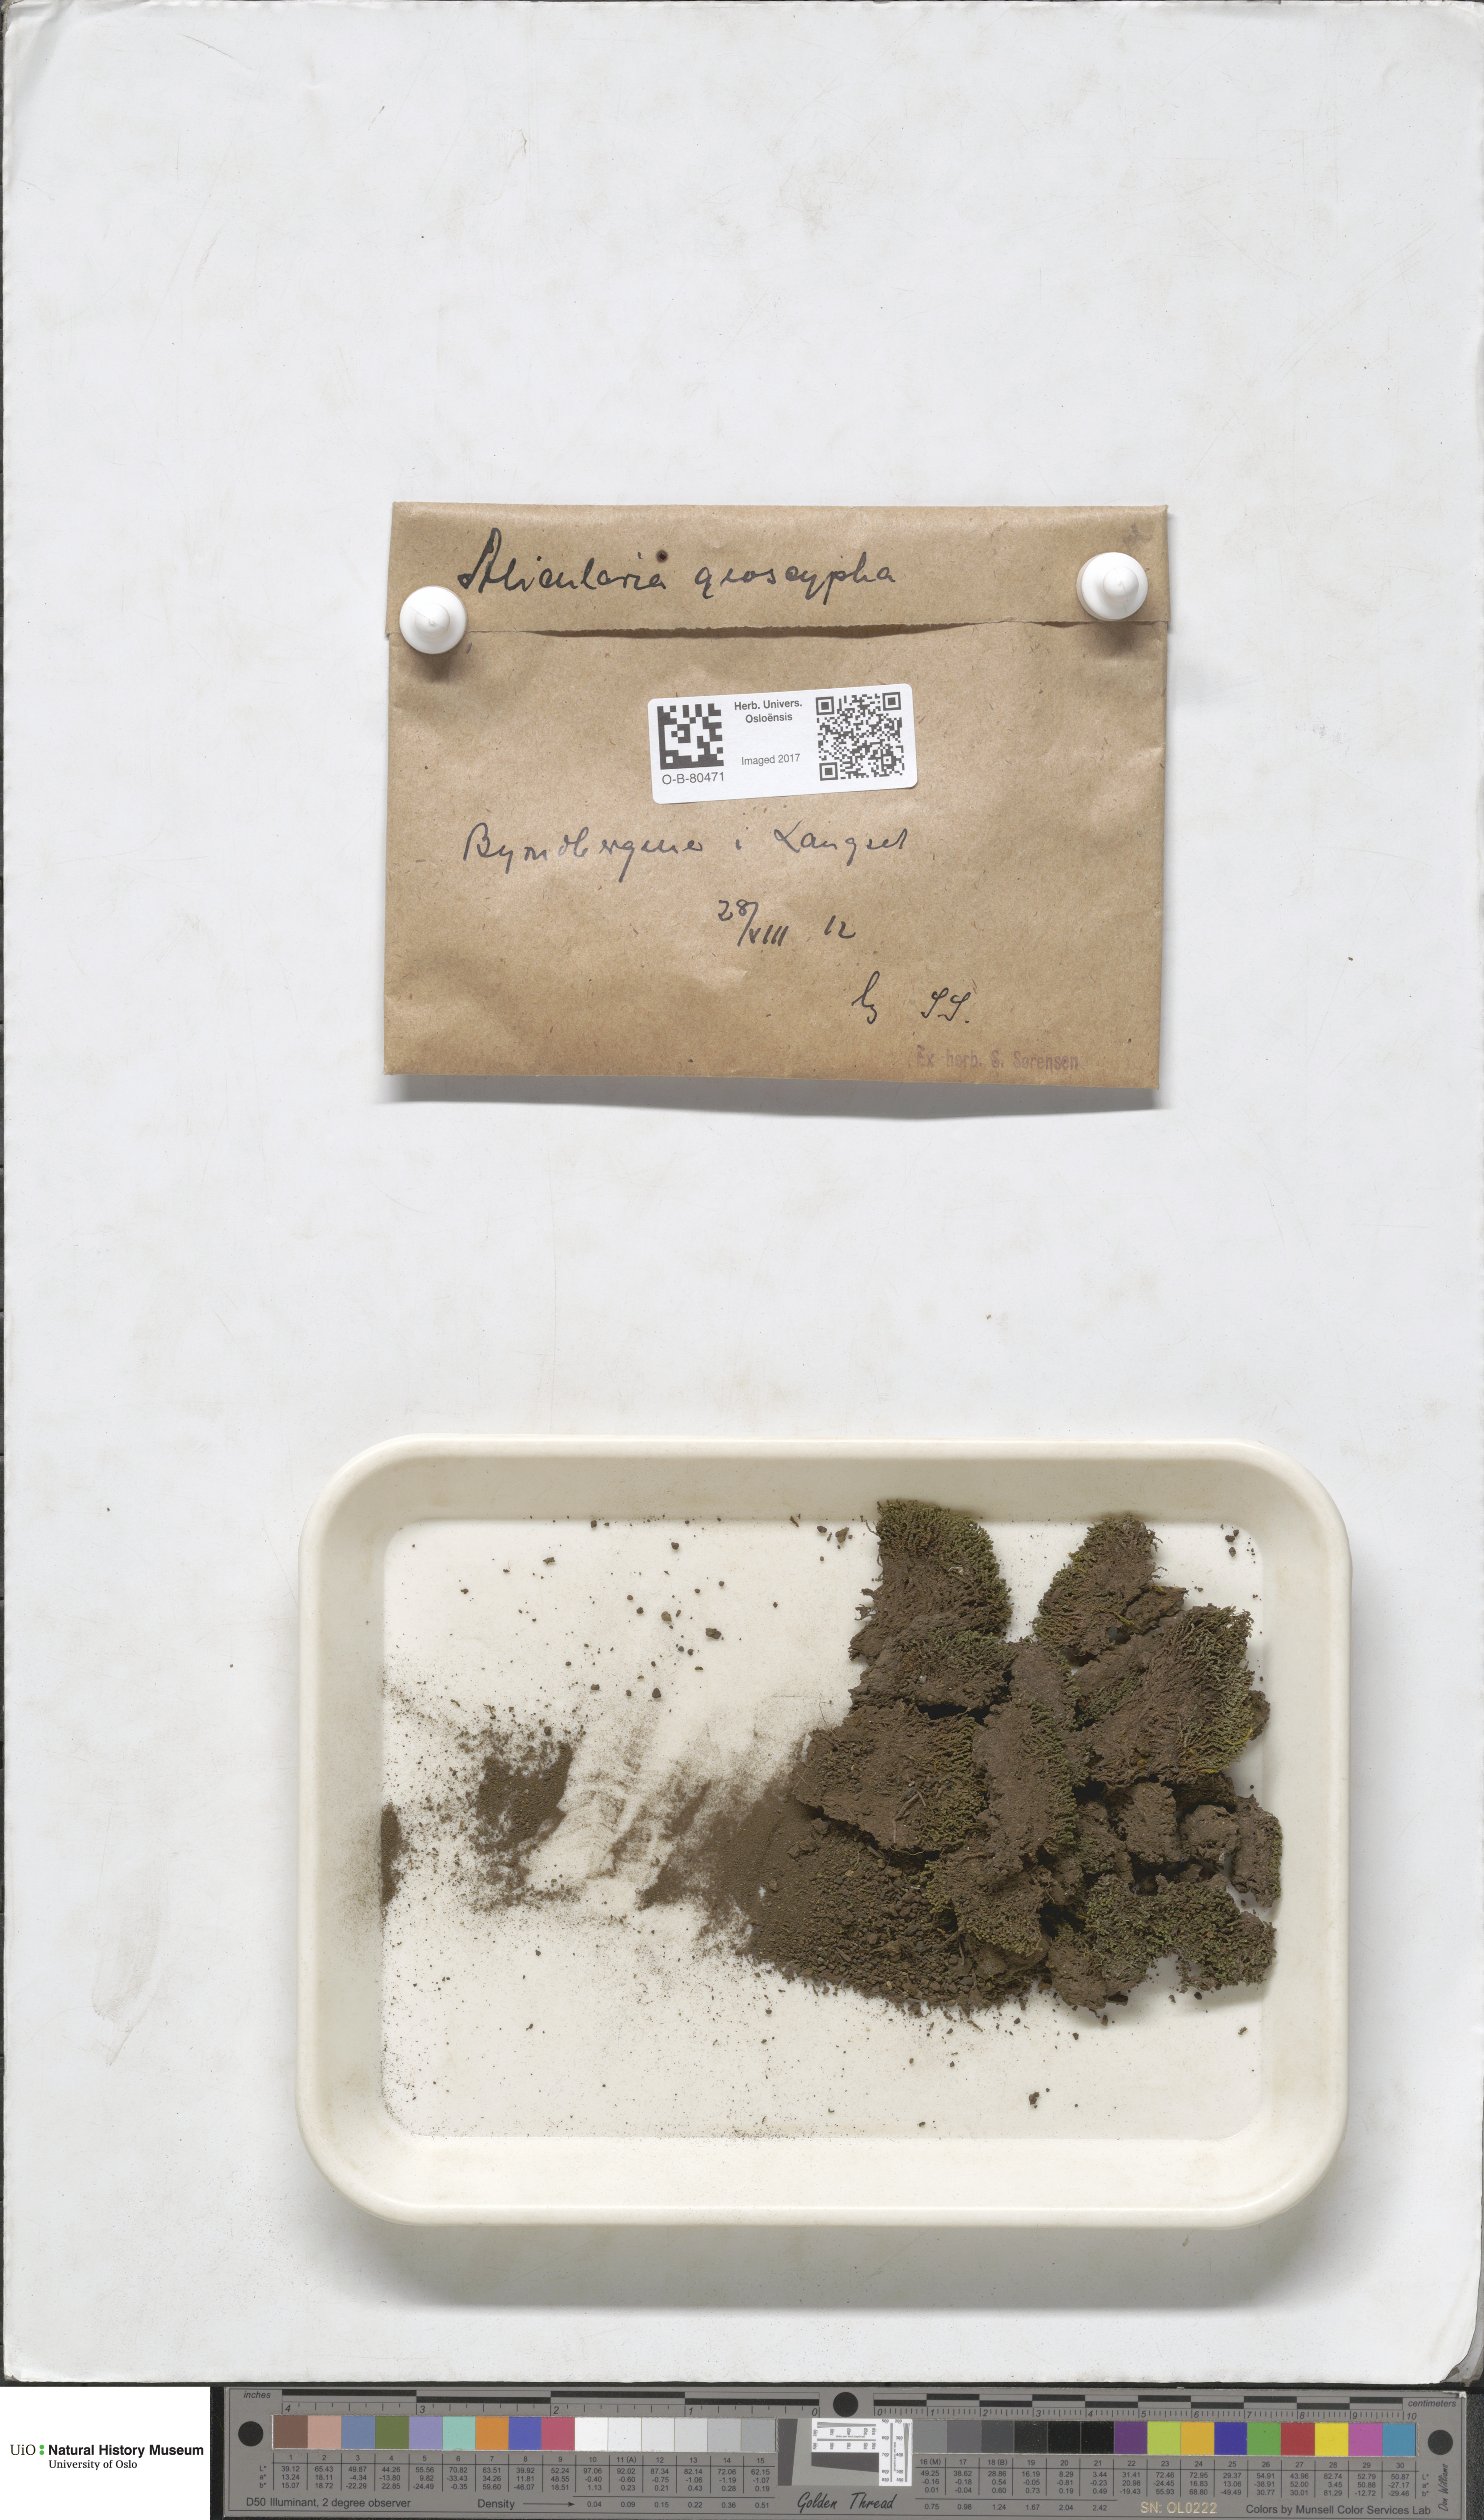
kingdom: Plantae
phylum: Marchantiophyta
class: Jungermanniopsida
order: Jungermanniales
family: Gymnomitriaceae
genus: Nardia
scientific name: Nardia geoscyphus
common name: Earth-cup flapwort
